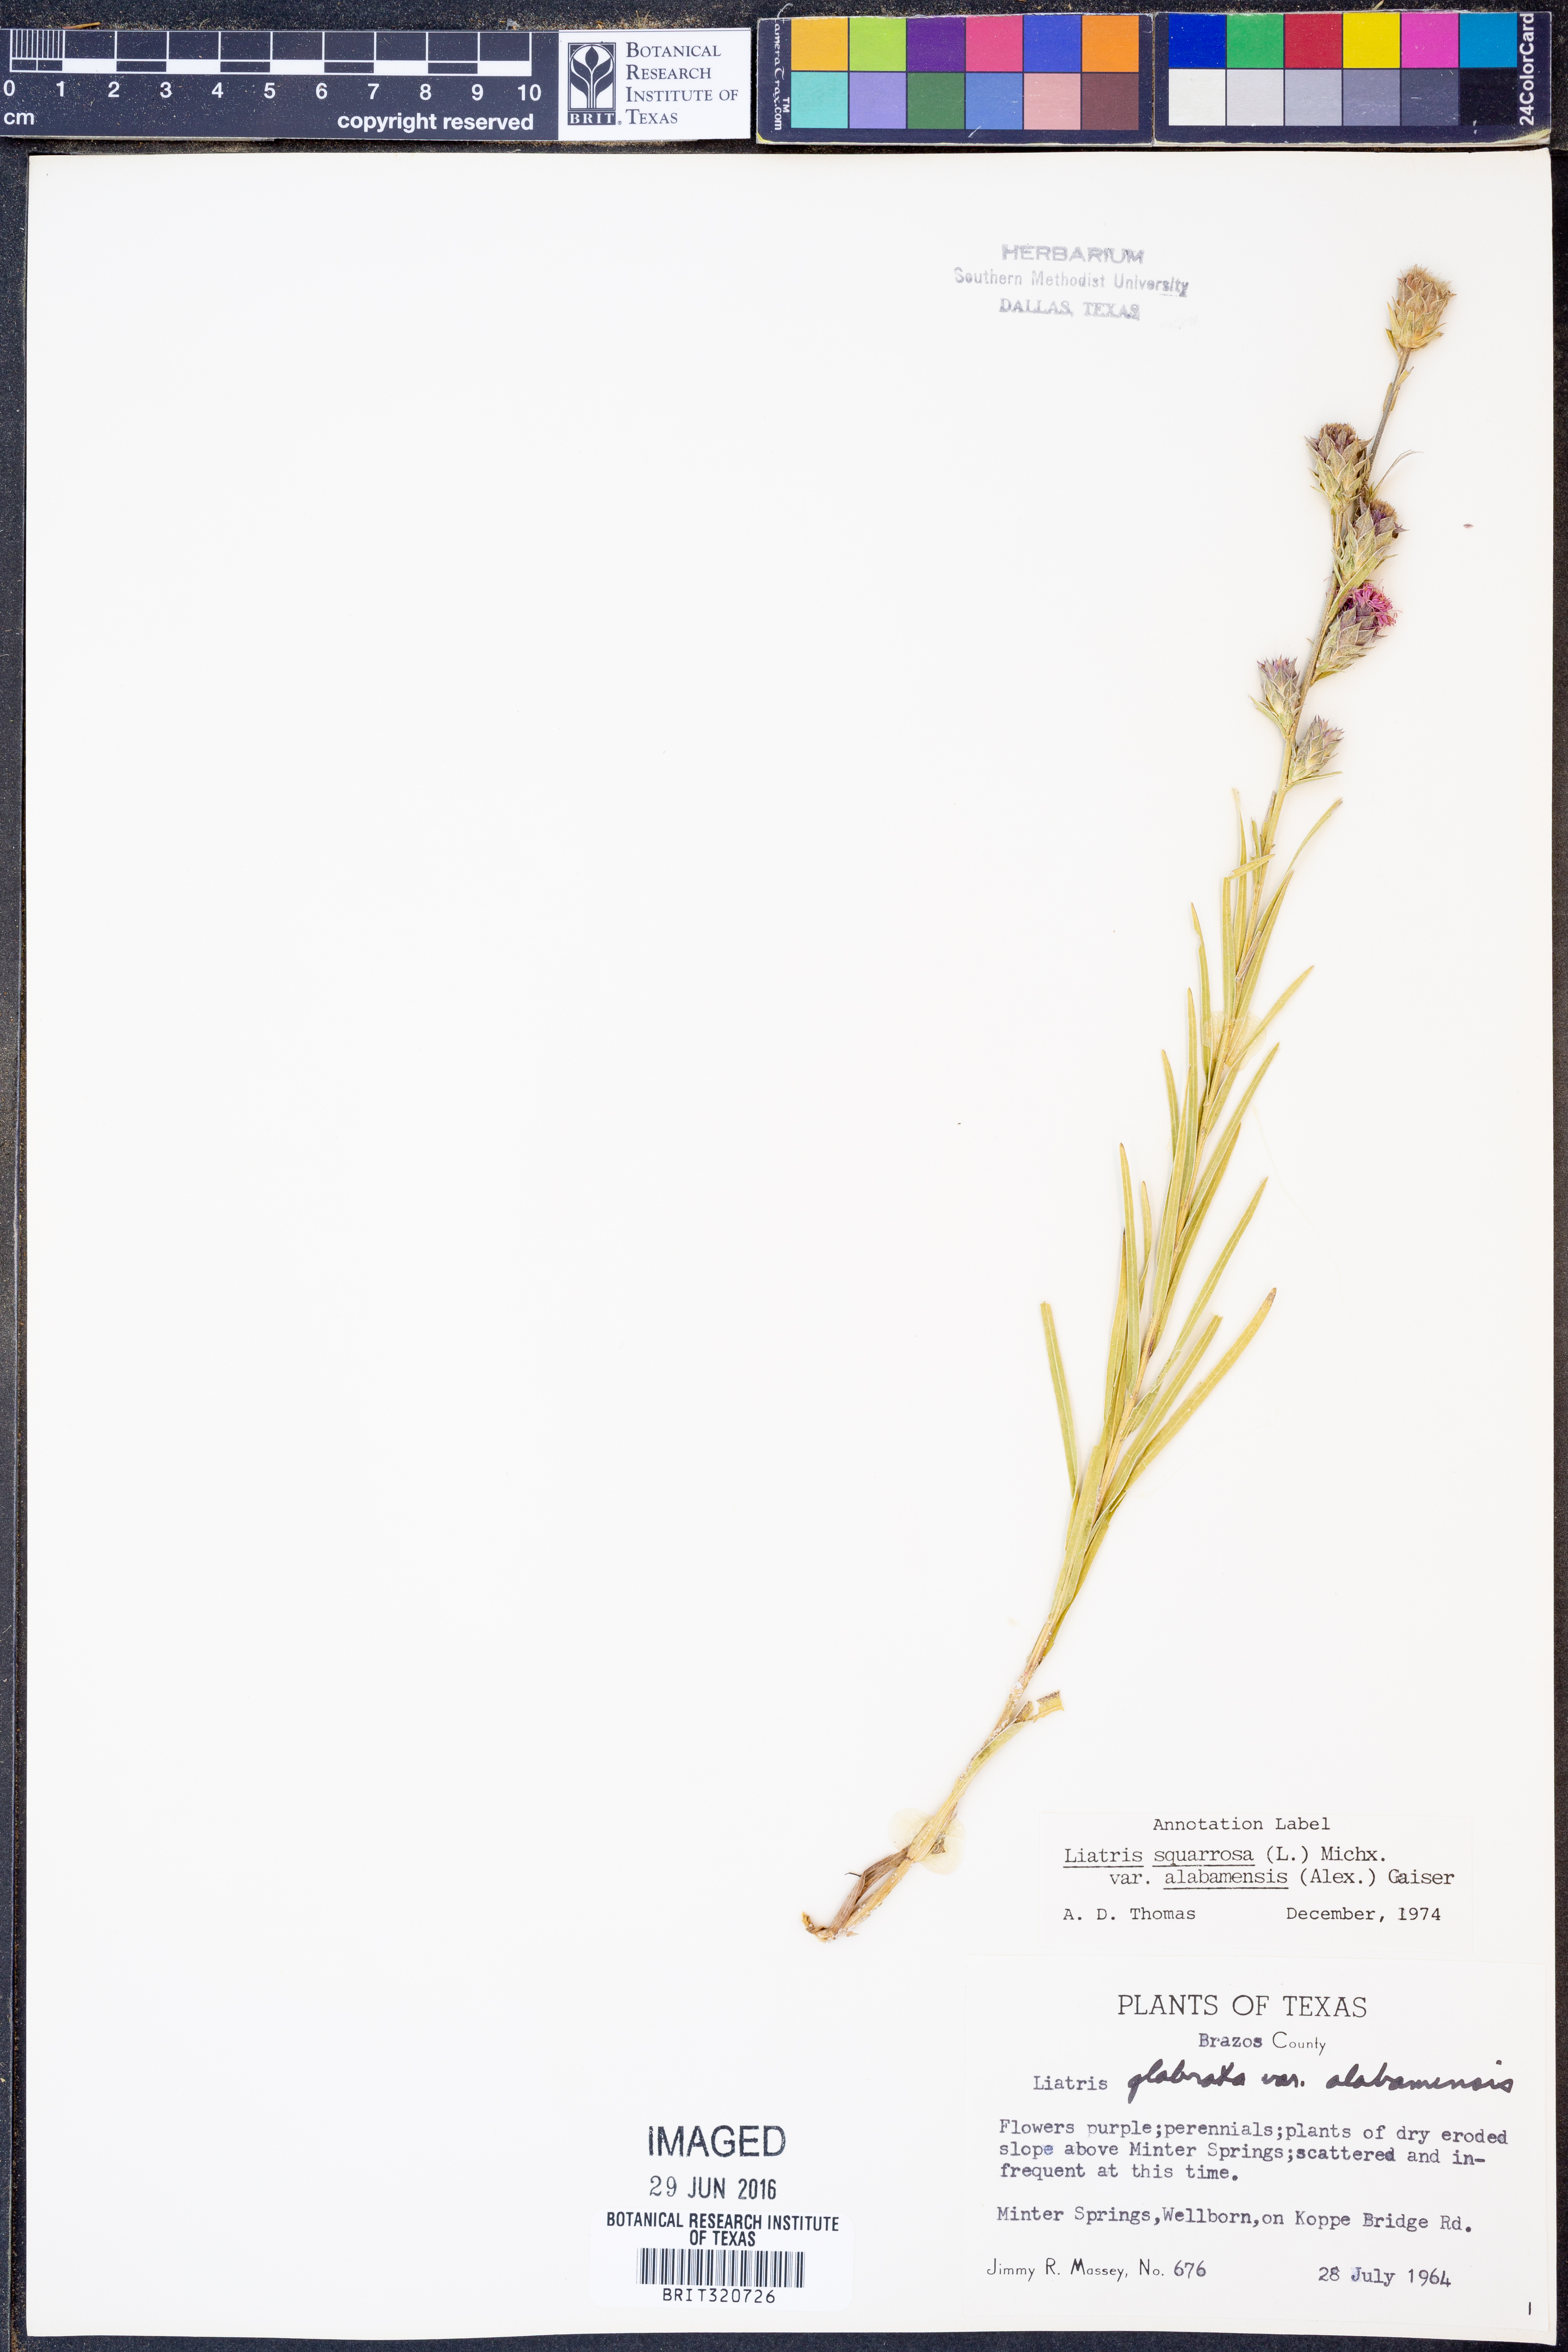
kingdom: Plantae
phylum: Tracheophyta
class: Magnoliopsida
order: Asterales
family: Asteraceae
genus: Liatris
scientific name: Liatris squarrosa
